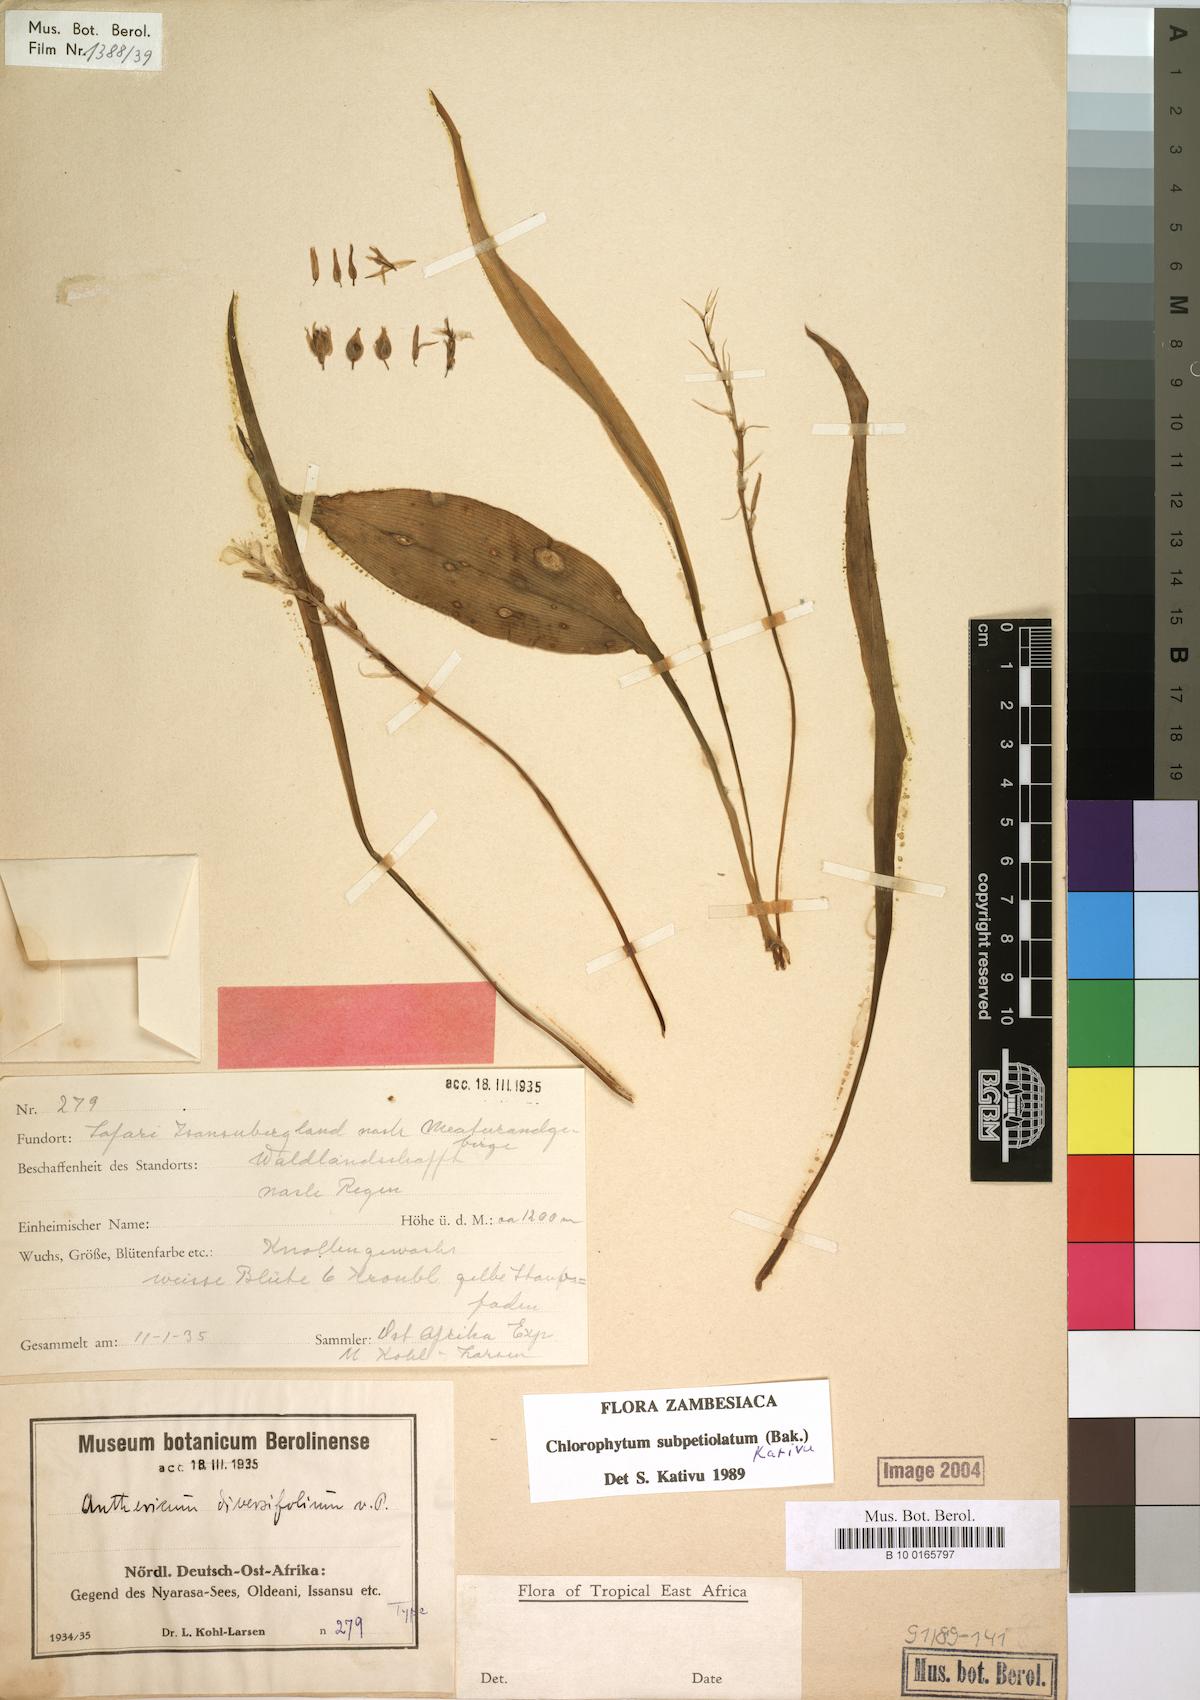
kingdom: Plantae
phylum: Tracheophyta
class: Liliopsida
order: Asparagales
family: Asparagaceae
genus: Chlorophytum
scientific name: Chlorophytum subpetiolatum
